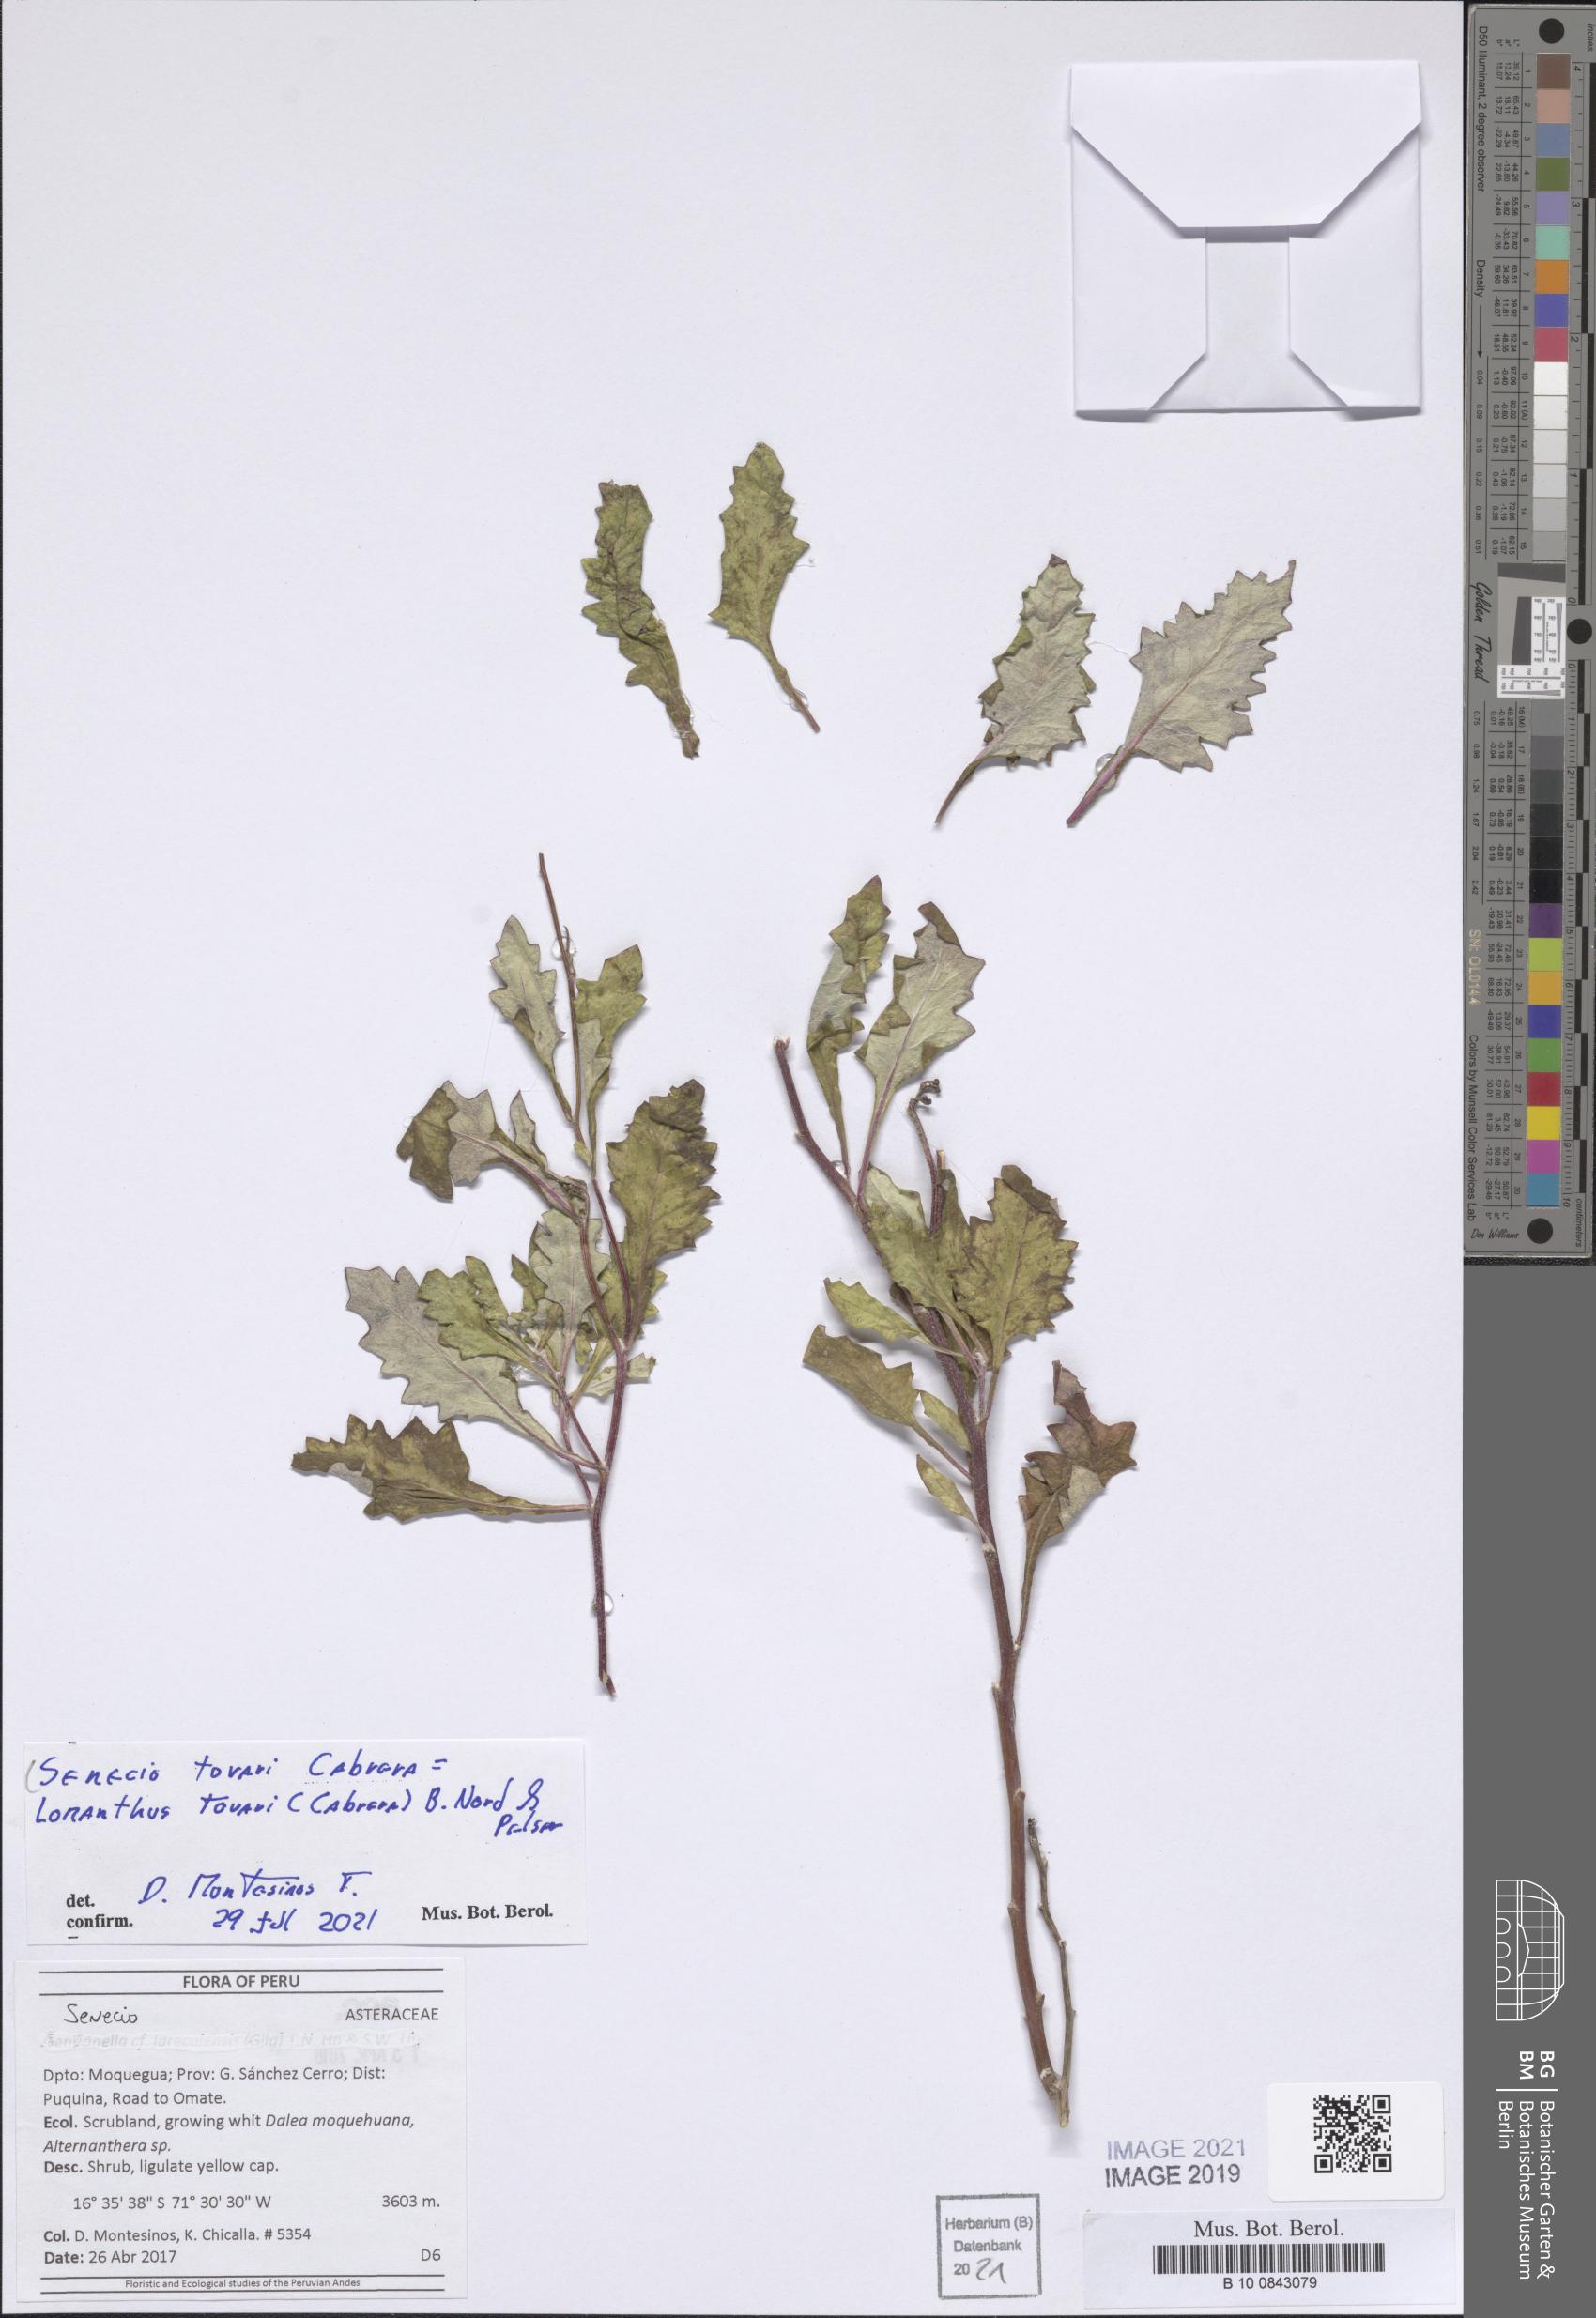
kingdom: Plantae
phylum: Tracheophyta
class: Magnoliopsida
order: Asterales
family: Asteraceae
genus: Lomanthus
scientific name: Lomanthus tovarii
